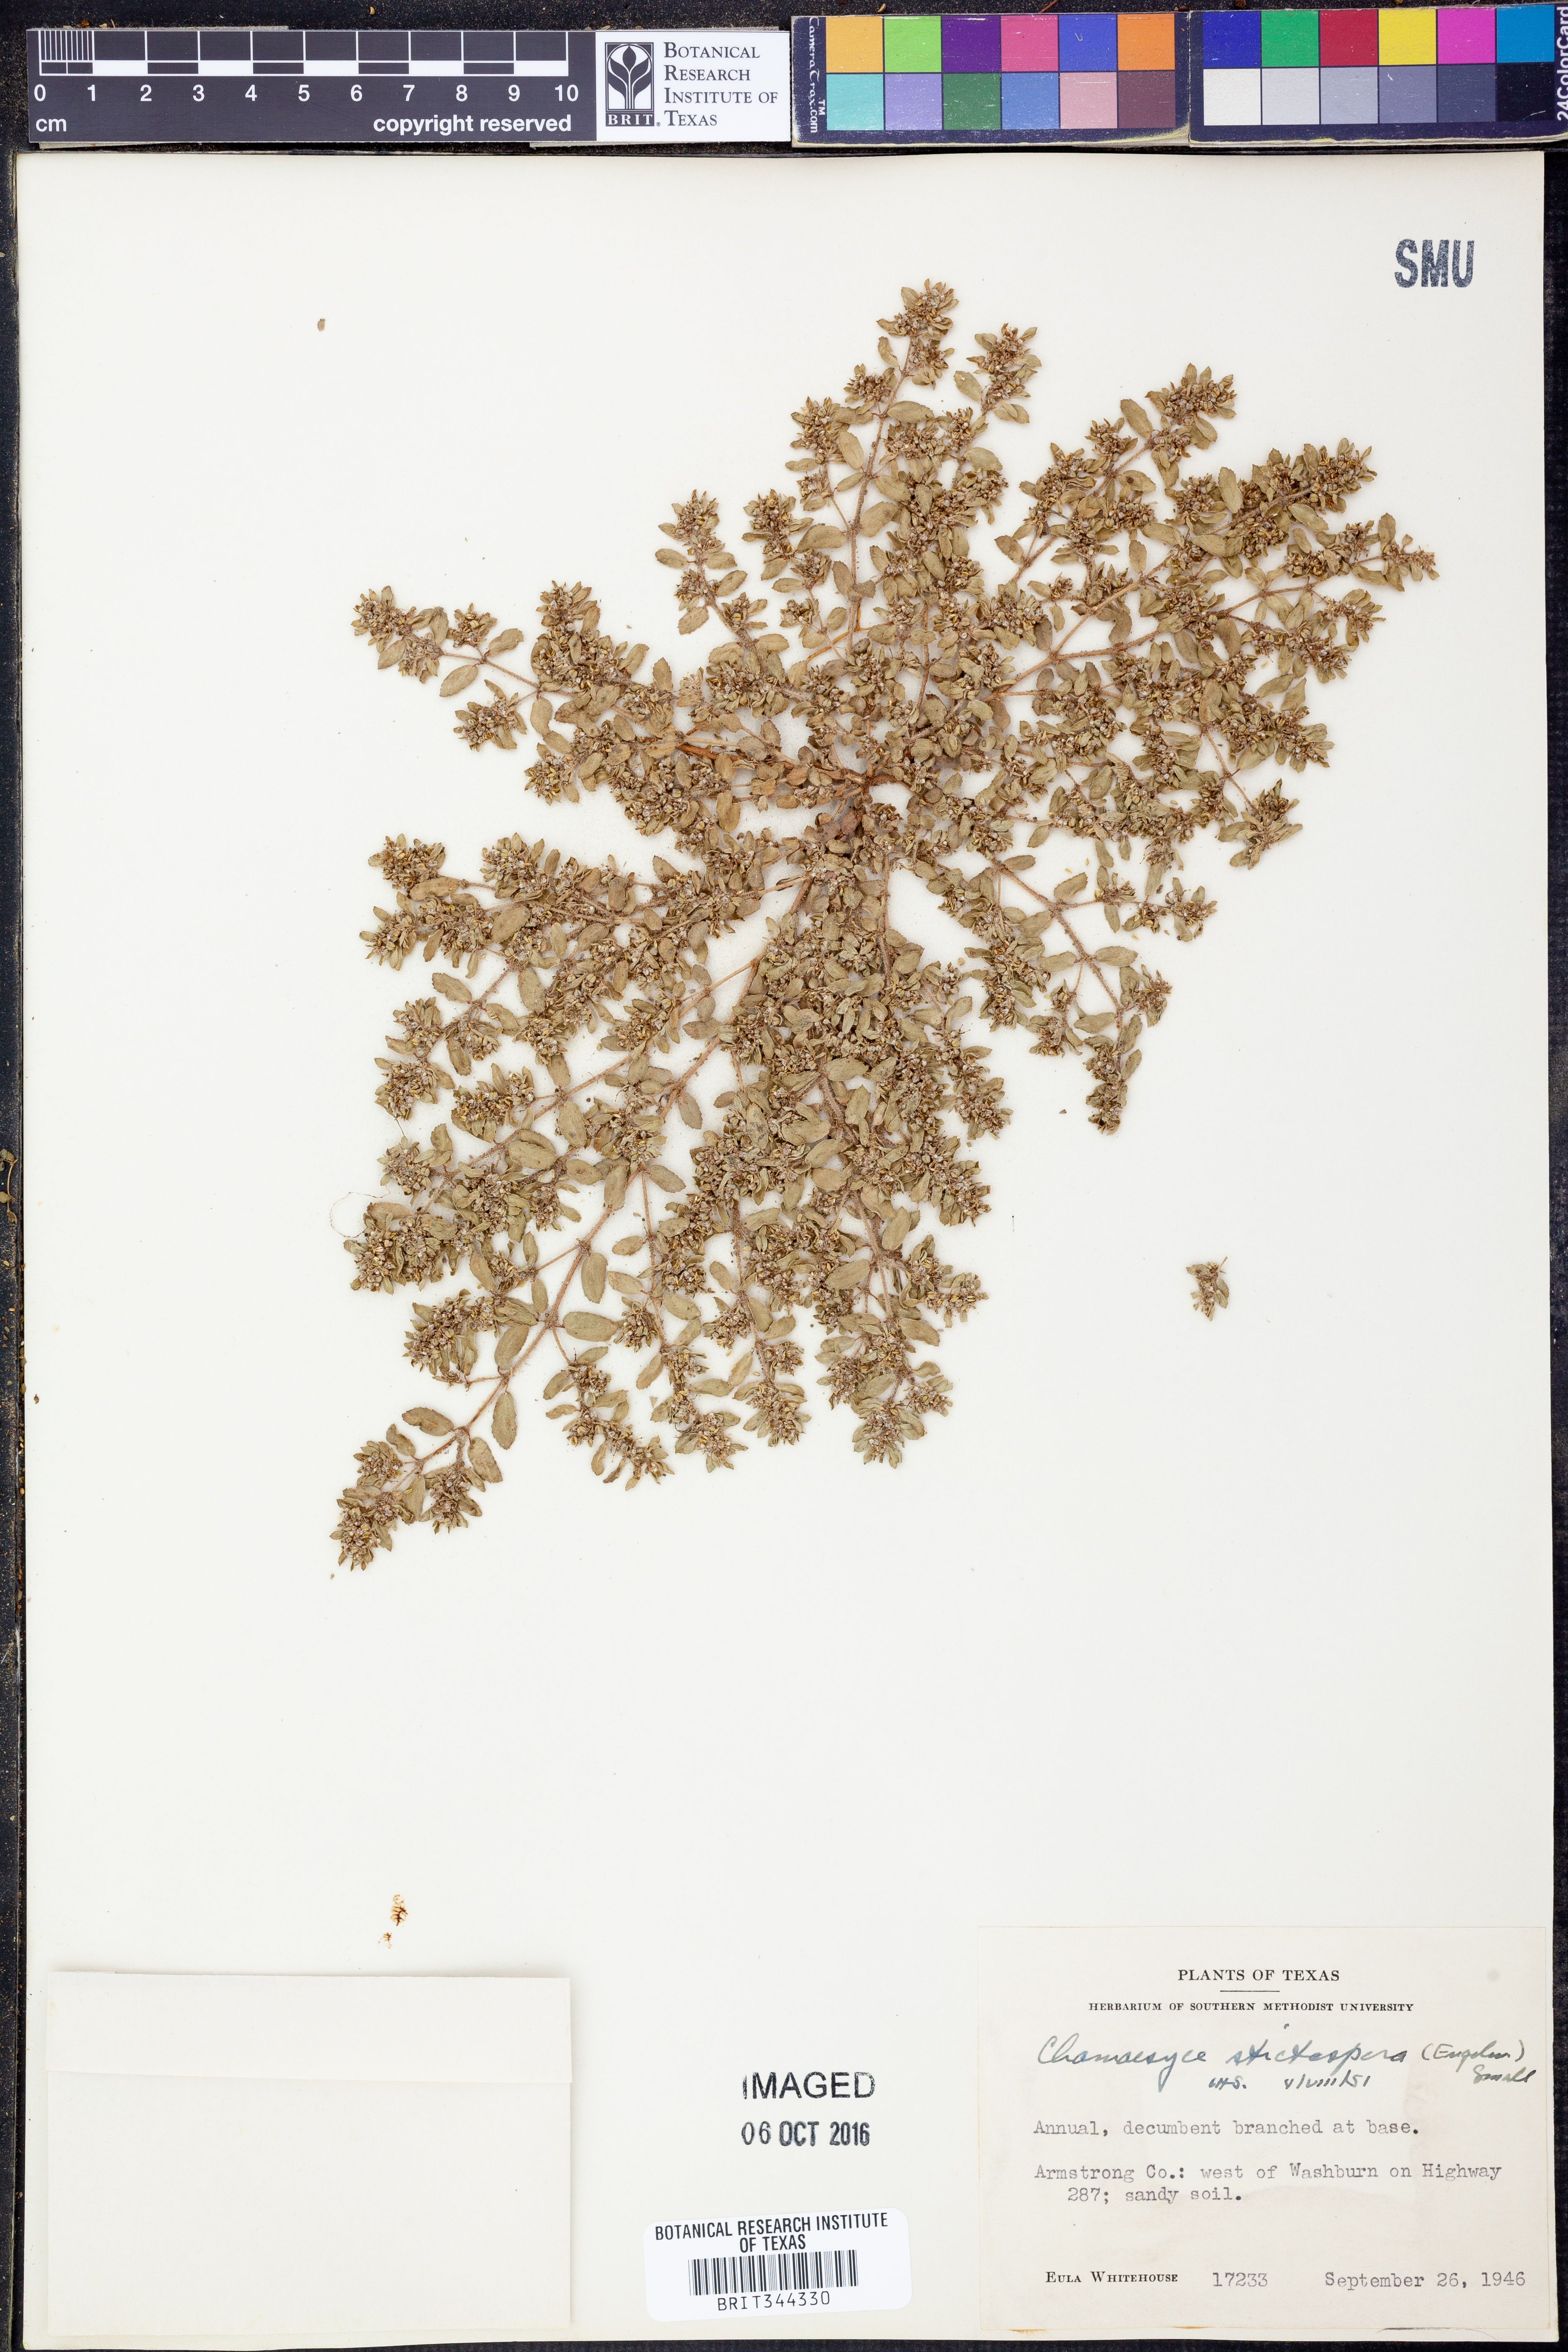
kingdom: Plantae
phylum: Tracheophyta
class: Magnoliopsida
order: Malpighiales
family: Euphorbiaceae
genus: Euphorbia
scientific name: Euphorbia stictospora
